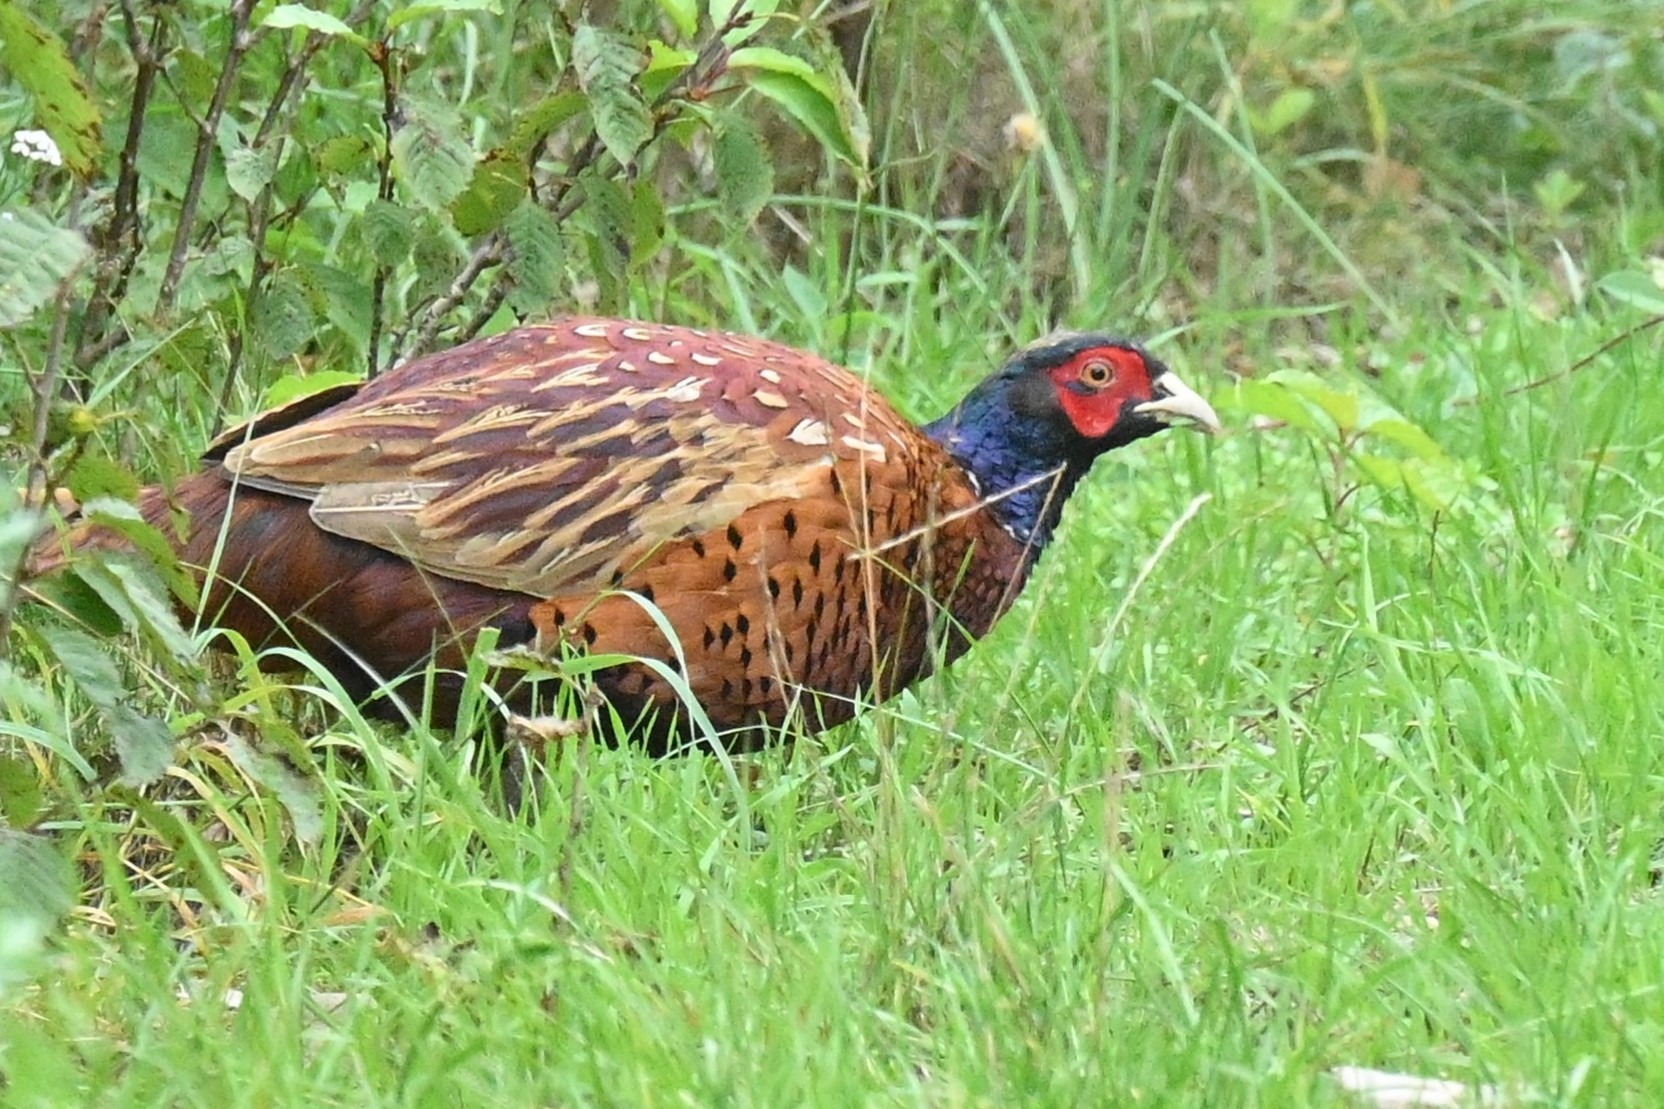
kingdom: Animalia
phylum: Chordata
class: Aves
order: Galliformes
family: Phasianidae
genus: Phasianus
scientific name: Phasianus colchicus
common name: Fasan
